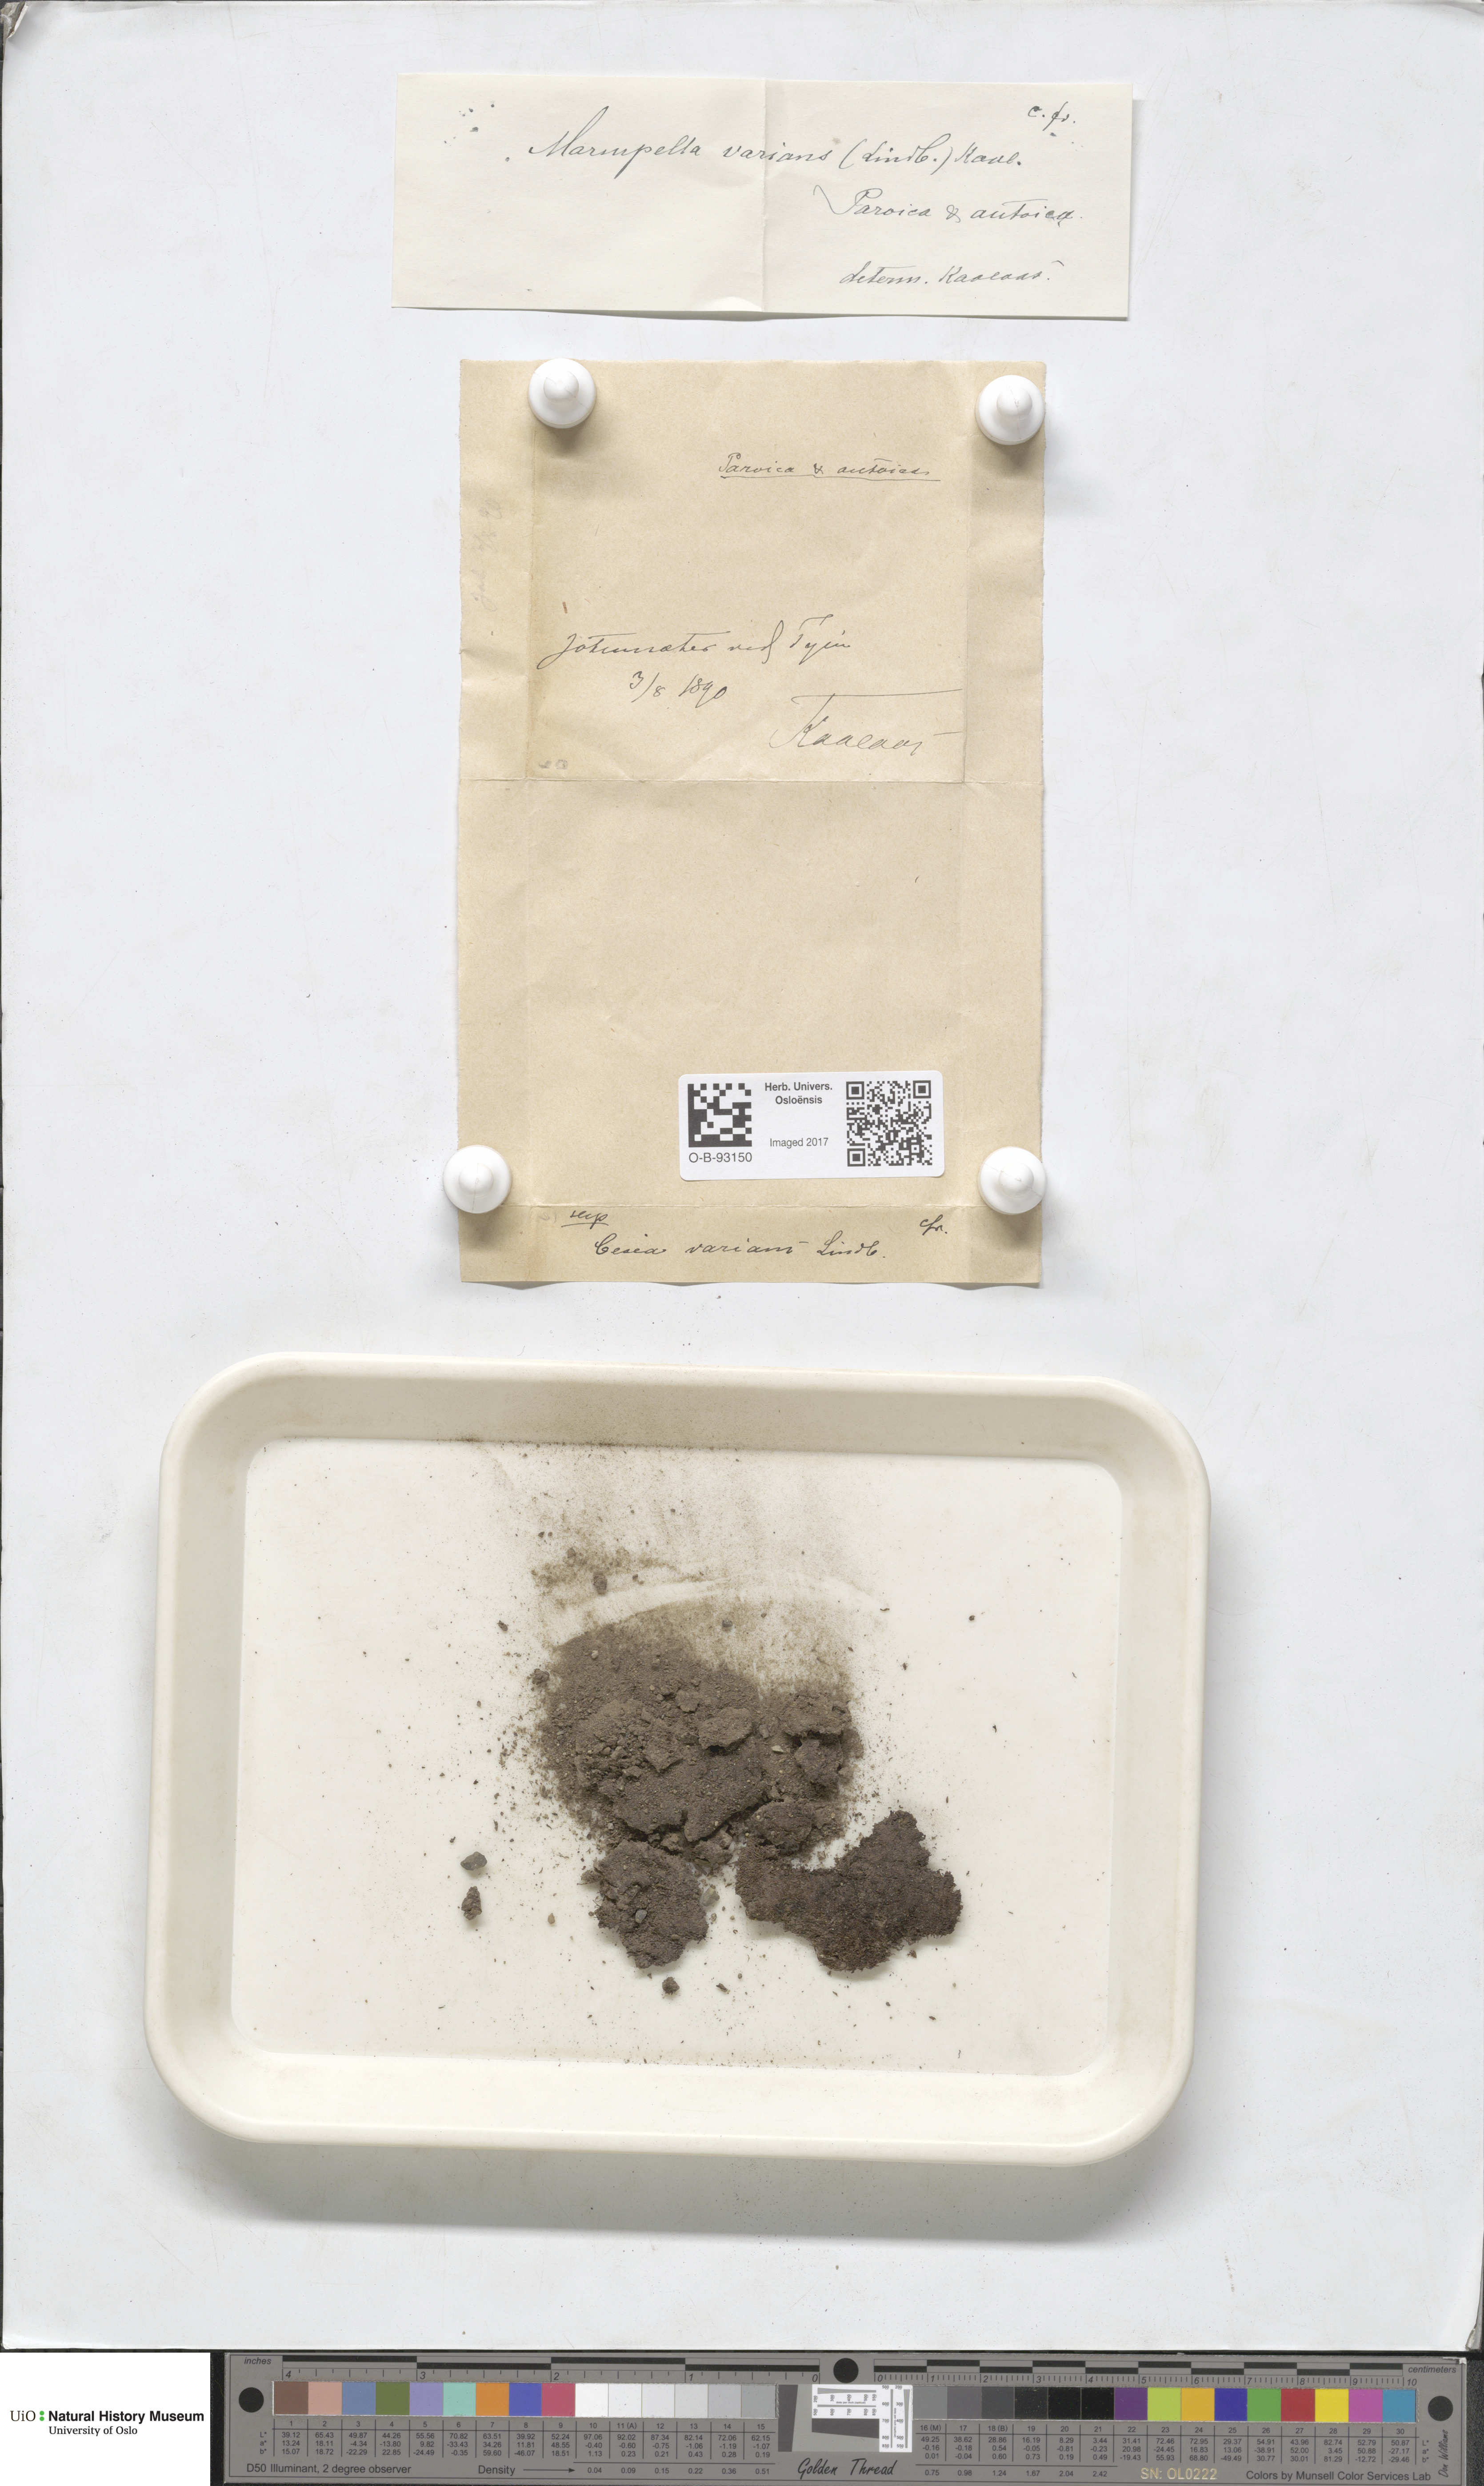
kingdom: Plantae
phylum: Marchantiophyta
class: Jungermanniopsida
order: Jungermanniales
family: Gymnomitriaceae
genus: Gymnomitrion
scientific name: Gymnomitrion brevissimum
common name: Snow rustwort
